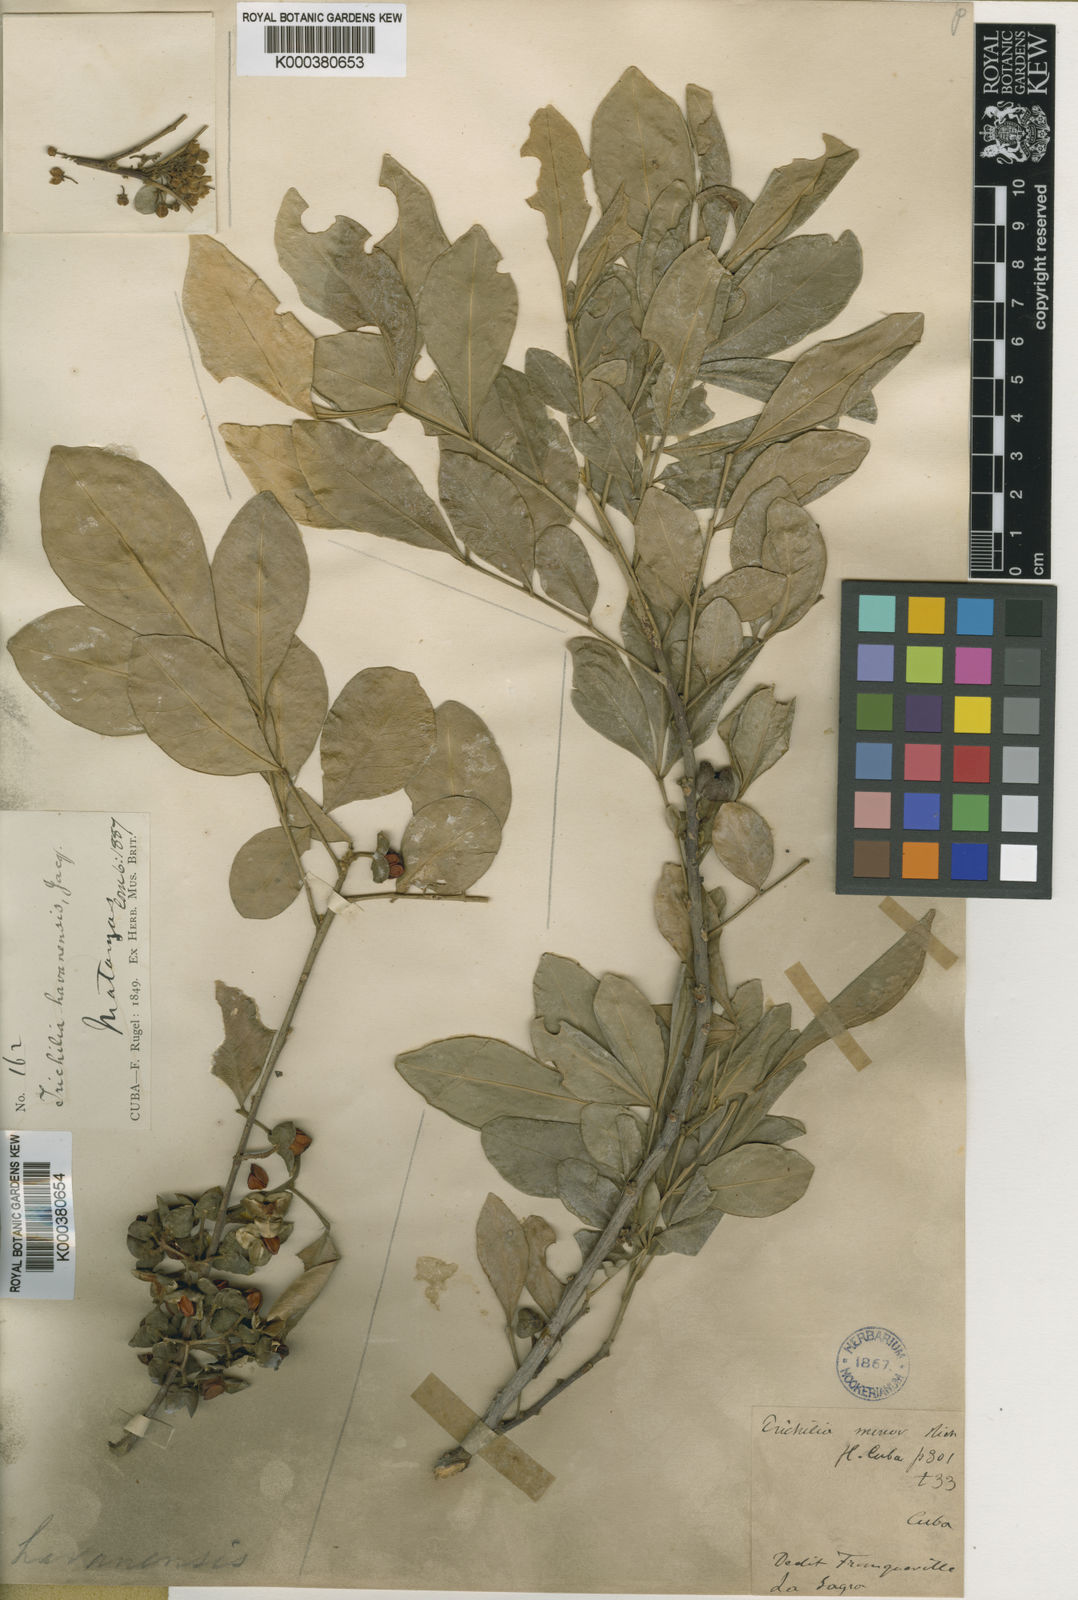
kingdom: Plantae
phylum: Tracheophyta
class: Magnoliopsida
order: Sapindales
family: Meliaceae
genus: Trichilia
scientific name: Trichilia havanensis
